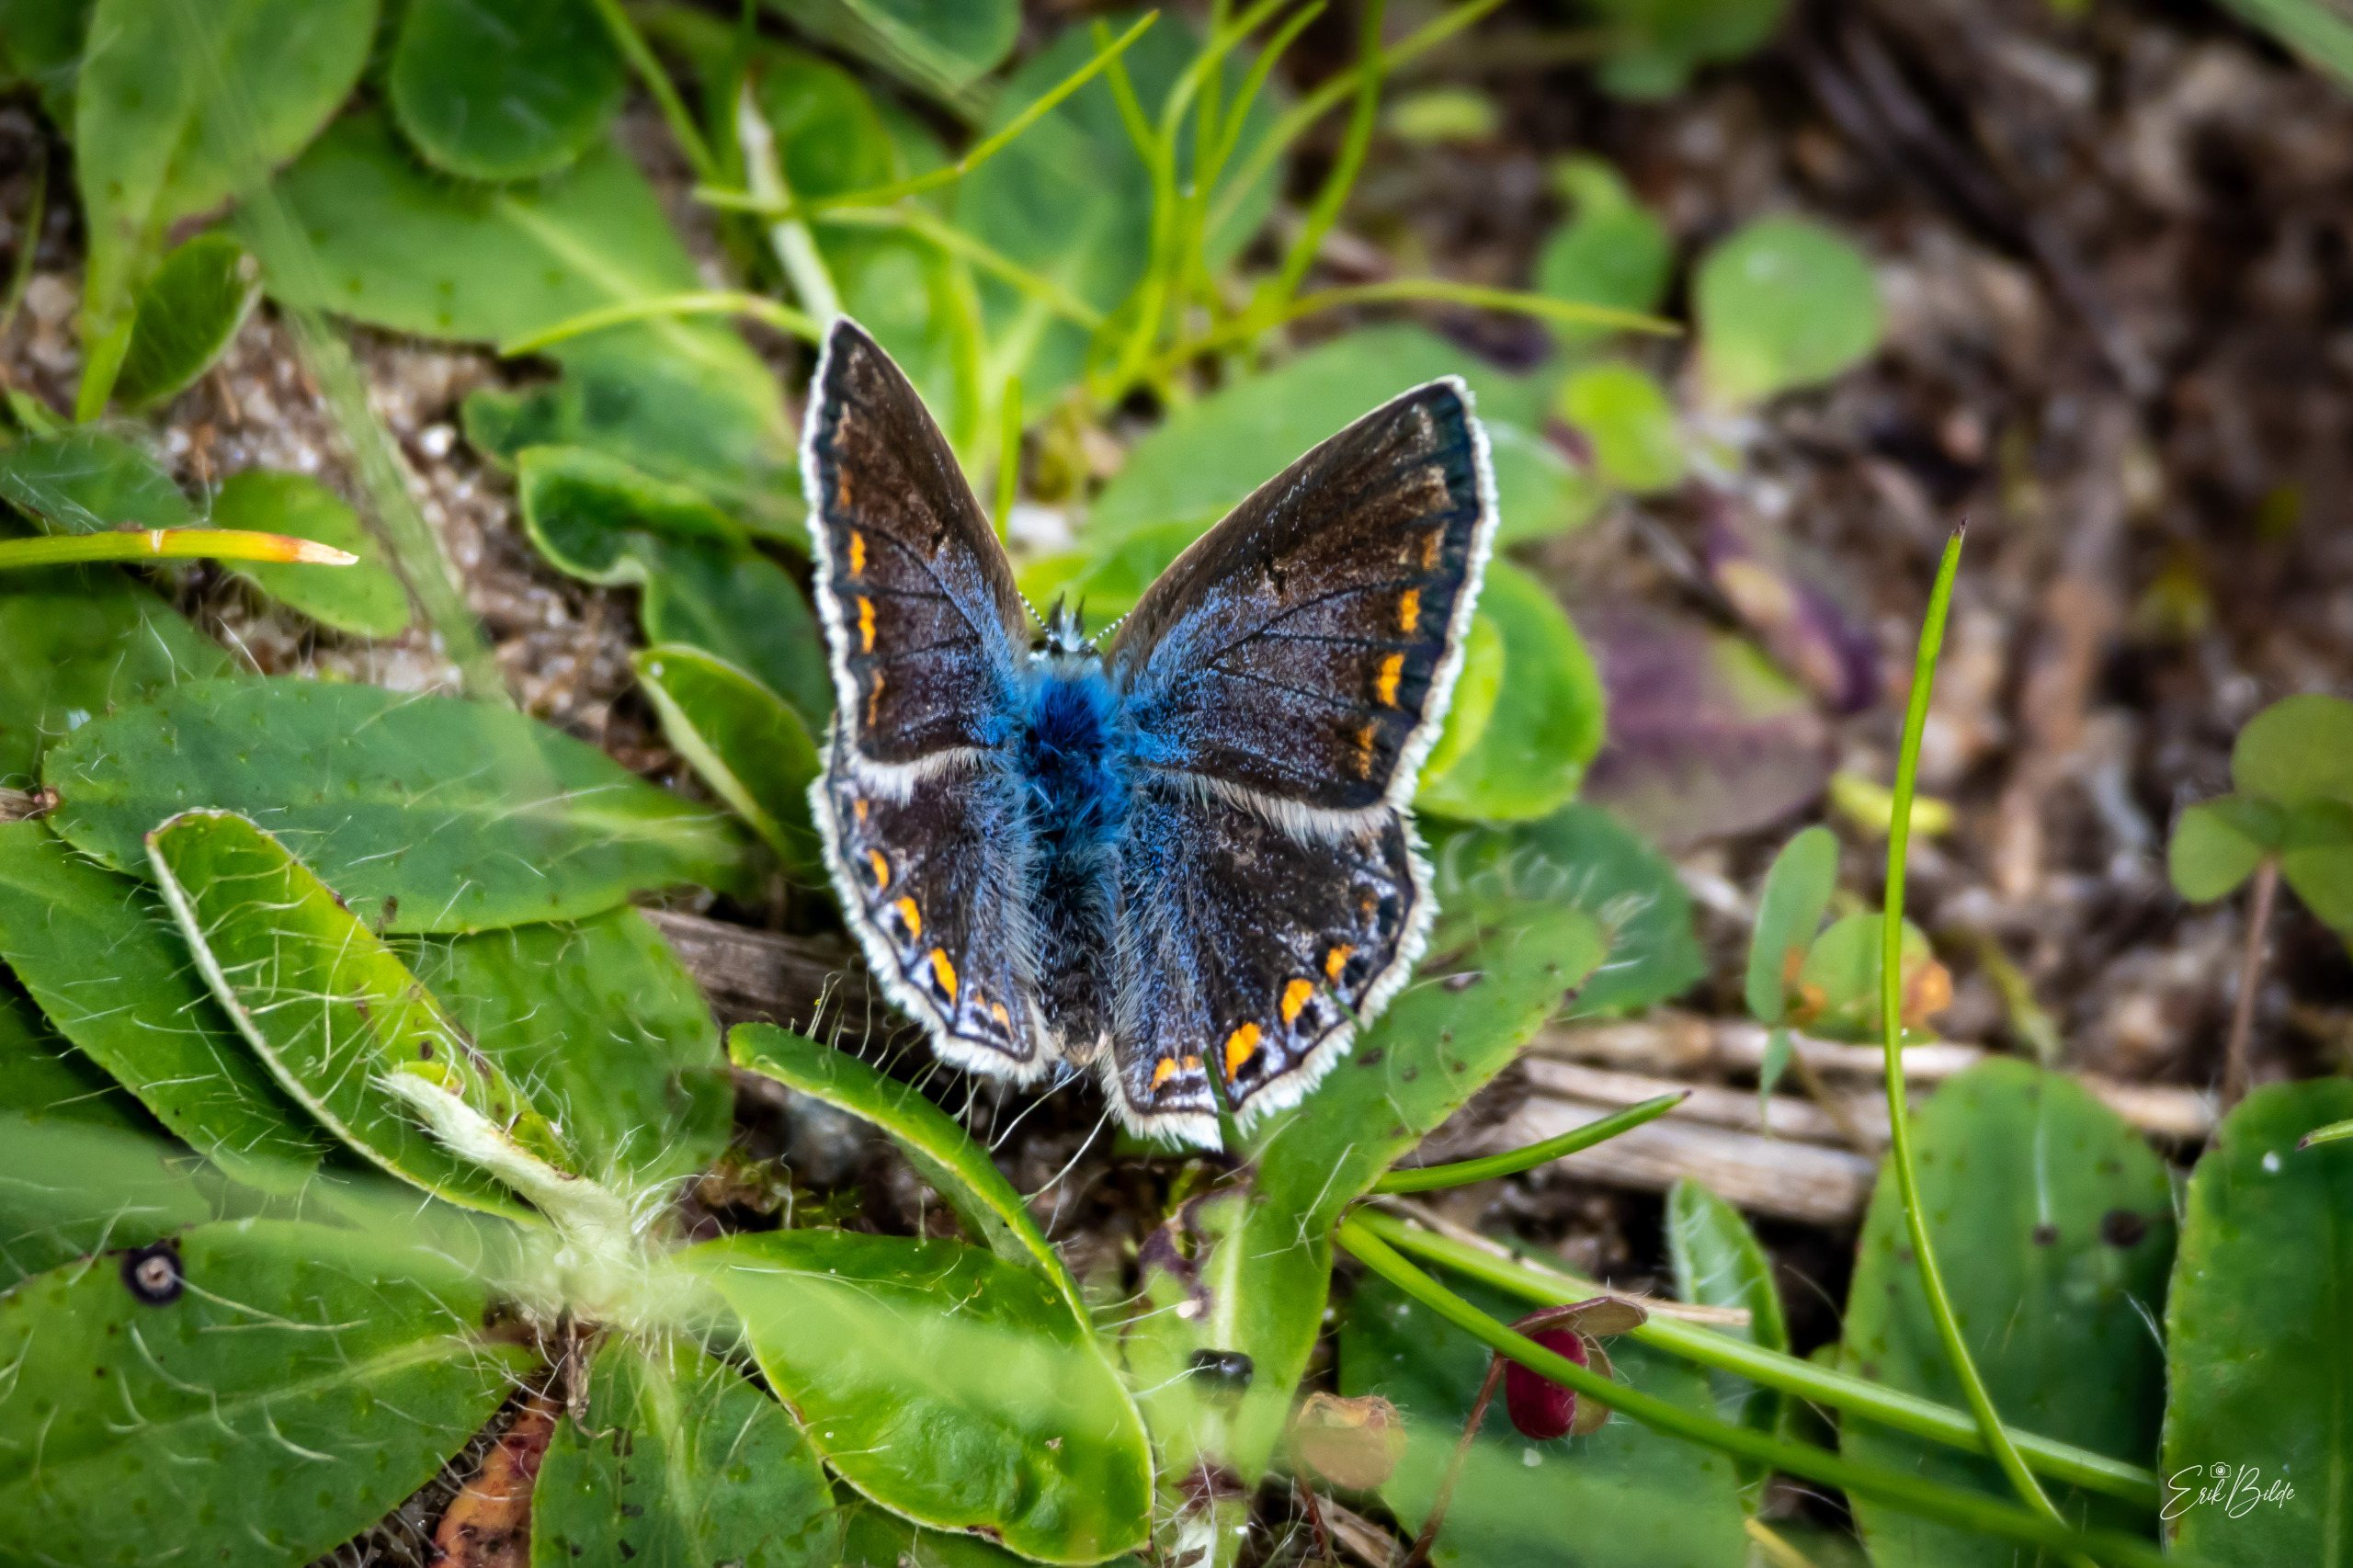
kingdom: Animalia
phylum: Arthropoda
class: Insecta
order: Lepidoptera
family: Lycaenidae
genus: Polyommatus
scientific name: Polyommatus icarus
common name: Almindelig blåfugl
